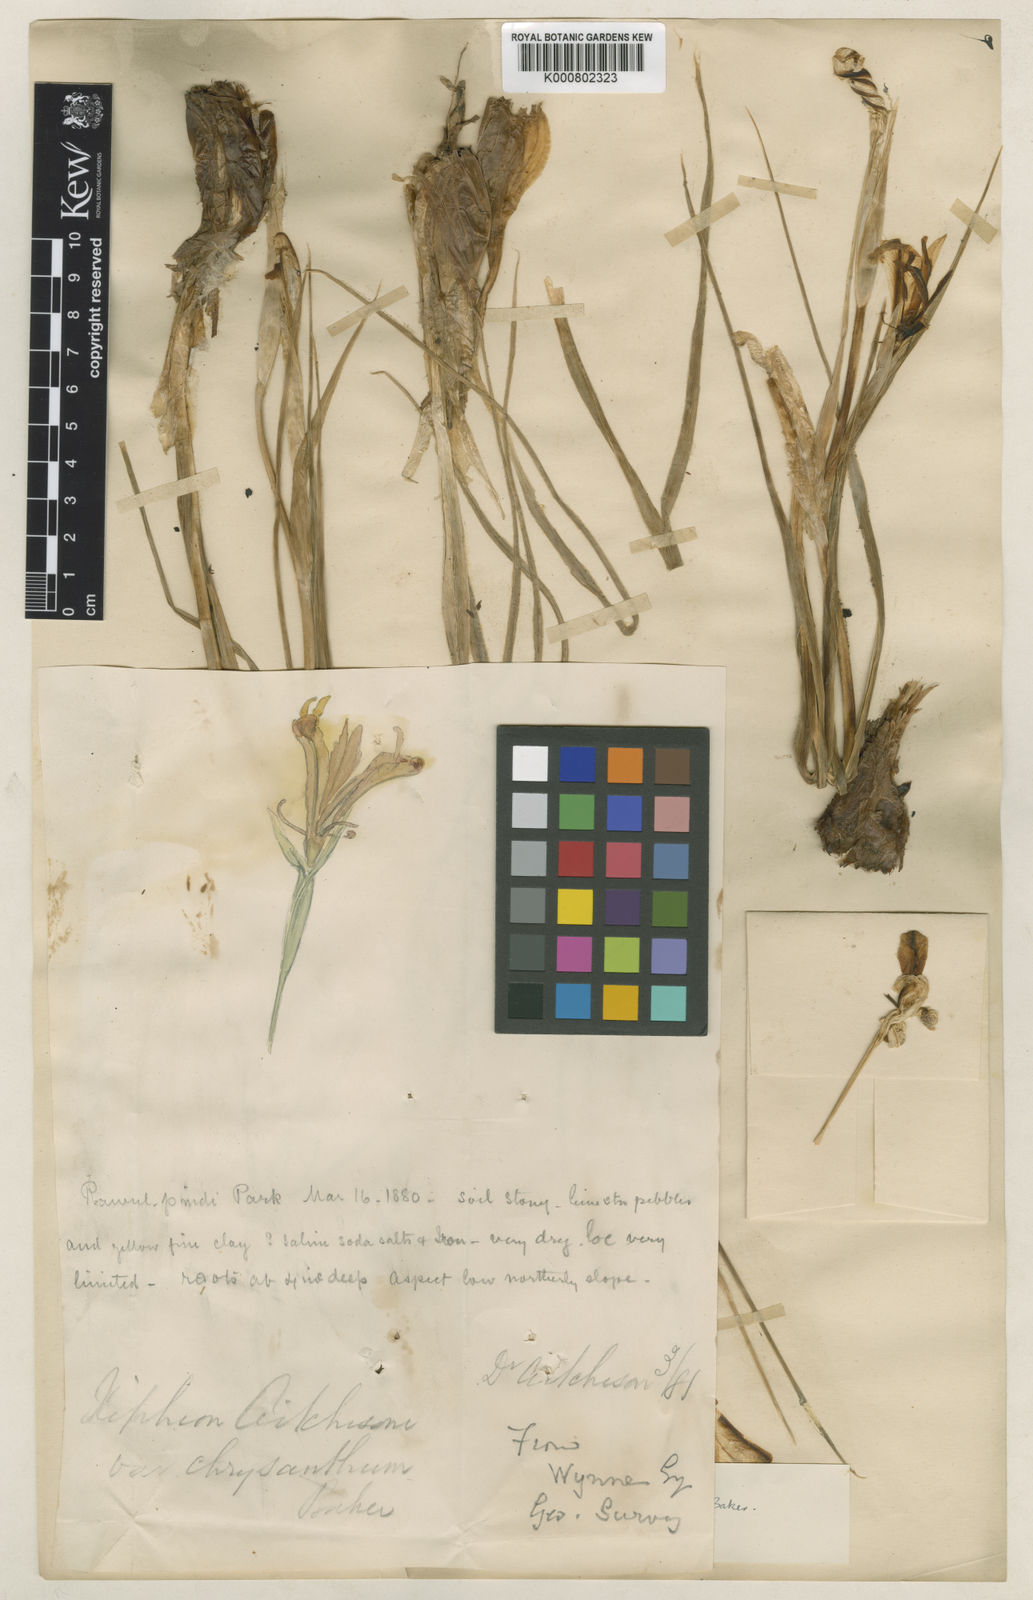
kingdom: Plantae
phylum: Tracheophyta
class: Liliopsida
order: Asparagales
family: Iridaceae
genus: Iris
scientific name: Iris aitchisonii
